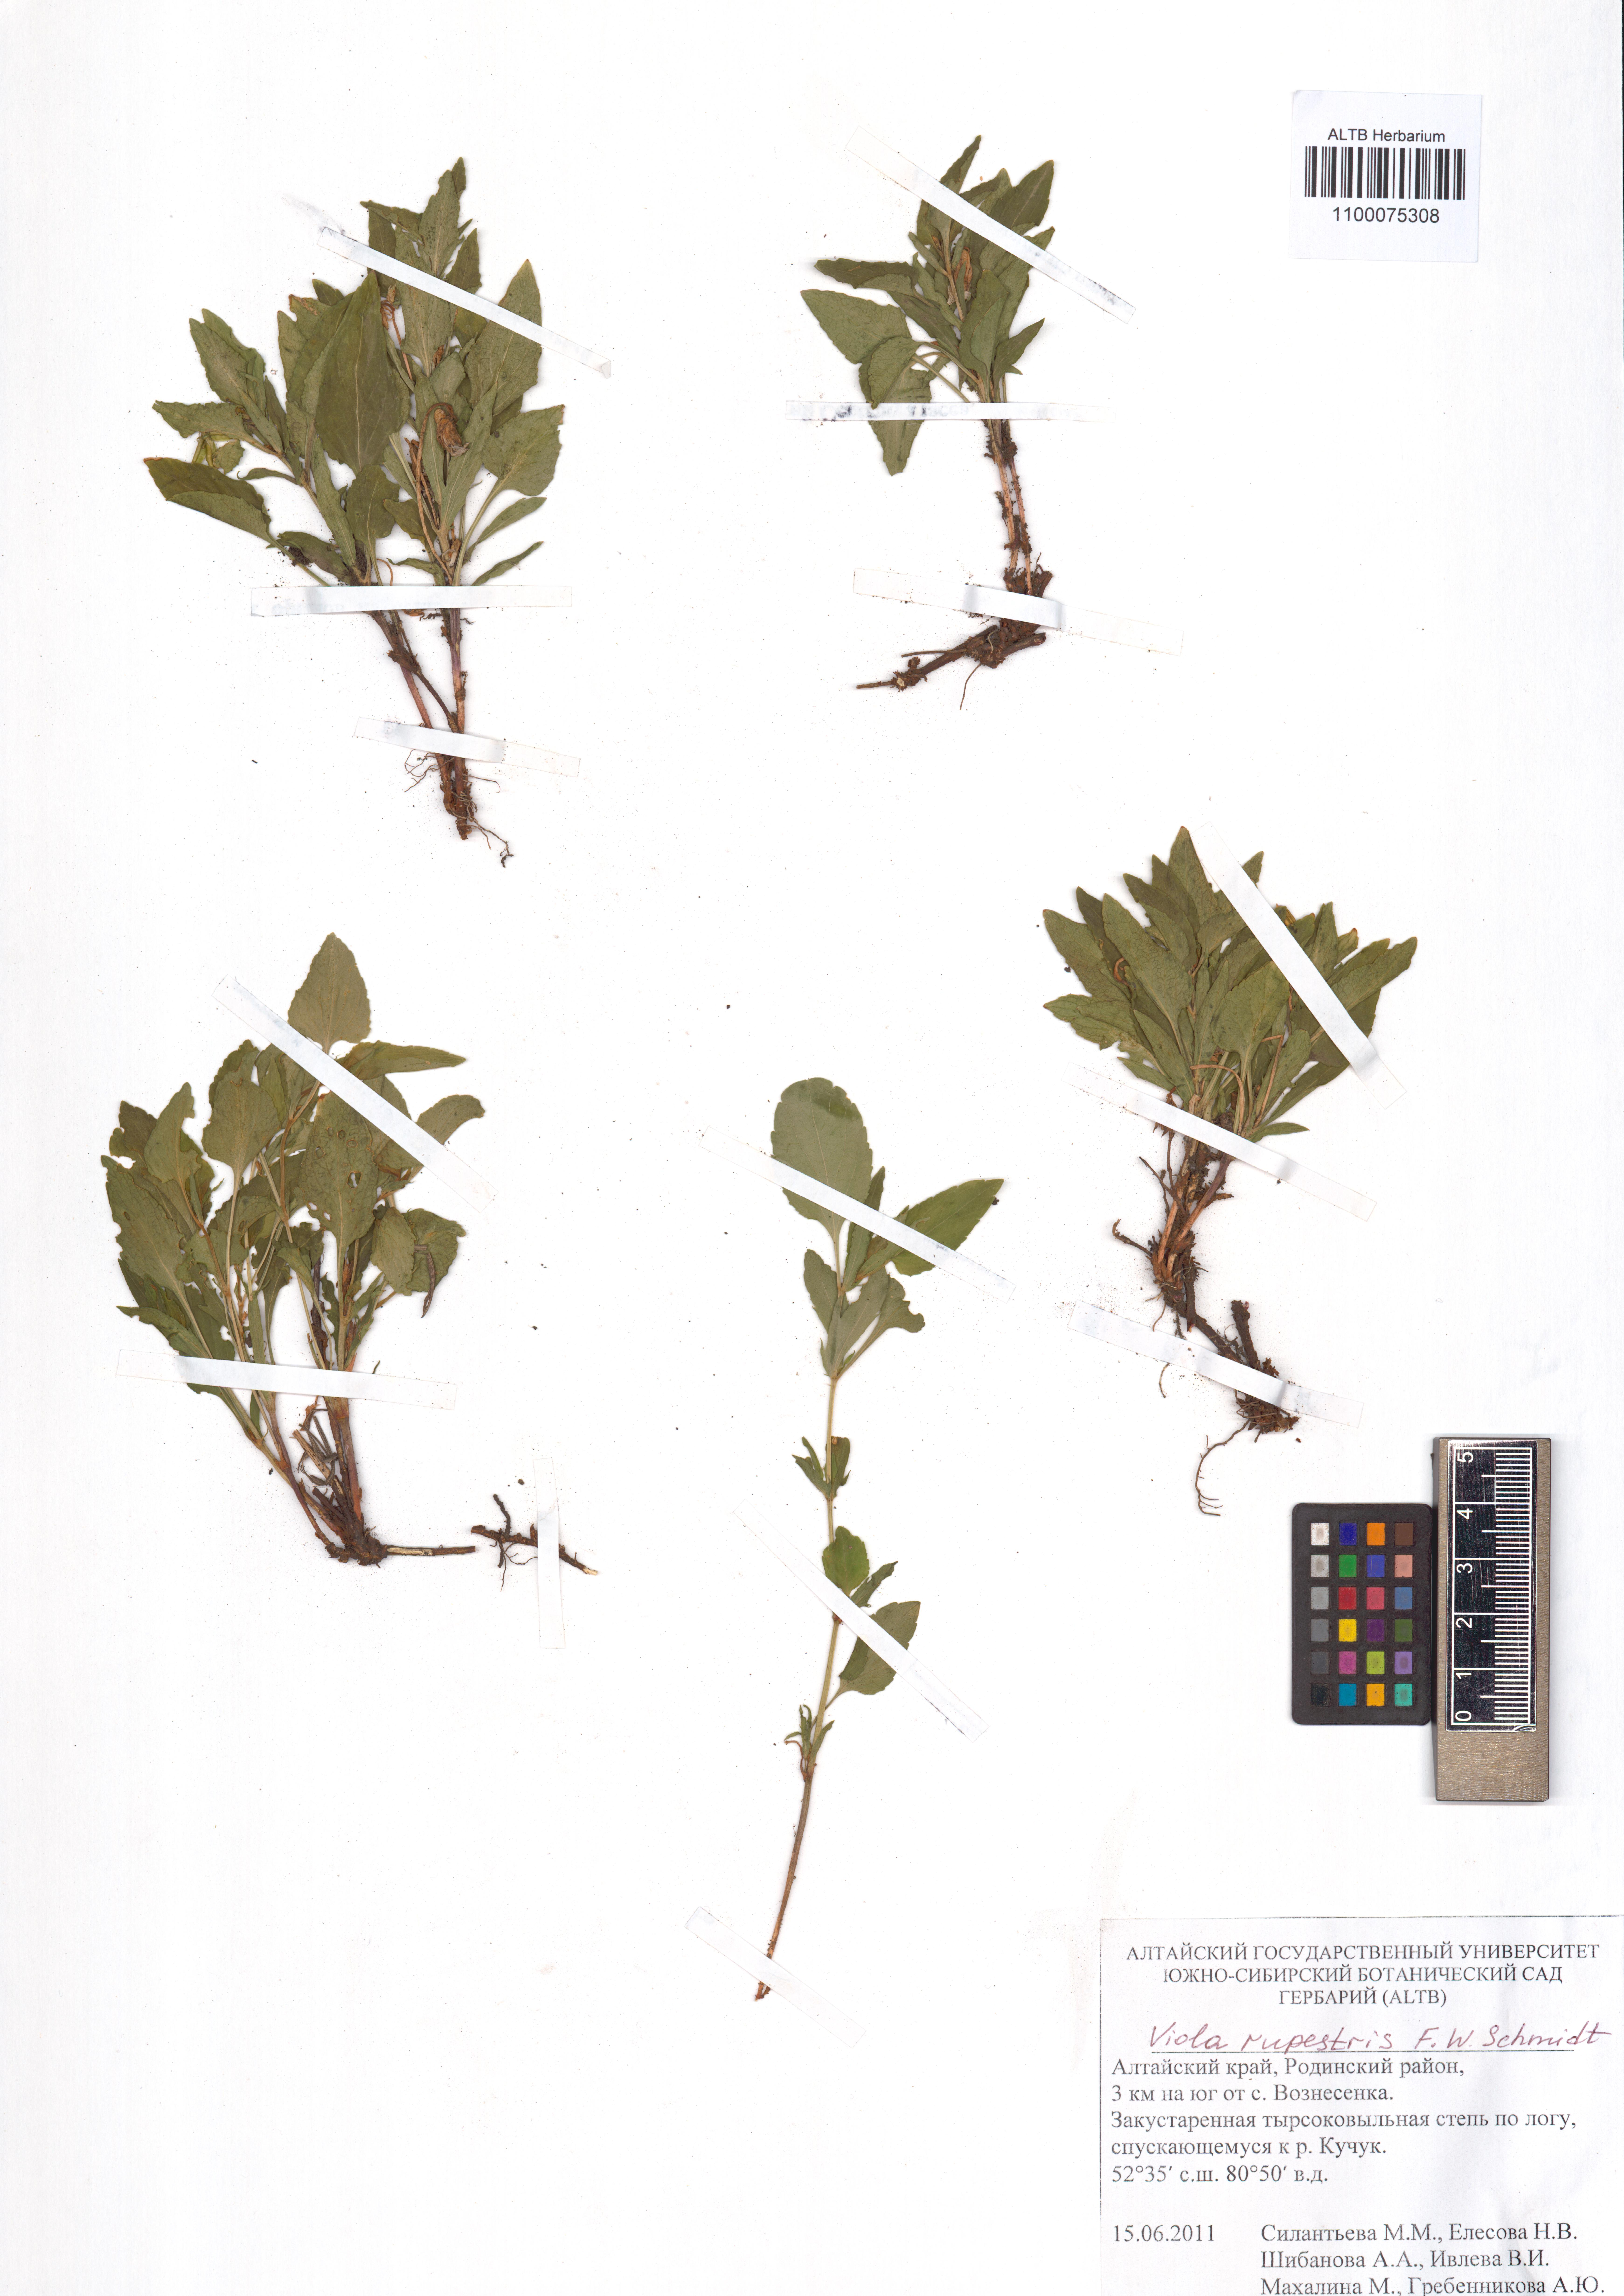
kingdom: Plantae
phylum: Tracheophyta
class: Magnoliopsida
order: Malpighiales
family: Violaceae
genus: Viola
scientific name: Viola rupestris
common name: Teesdale violet
